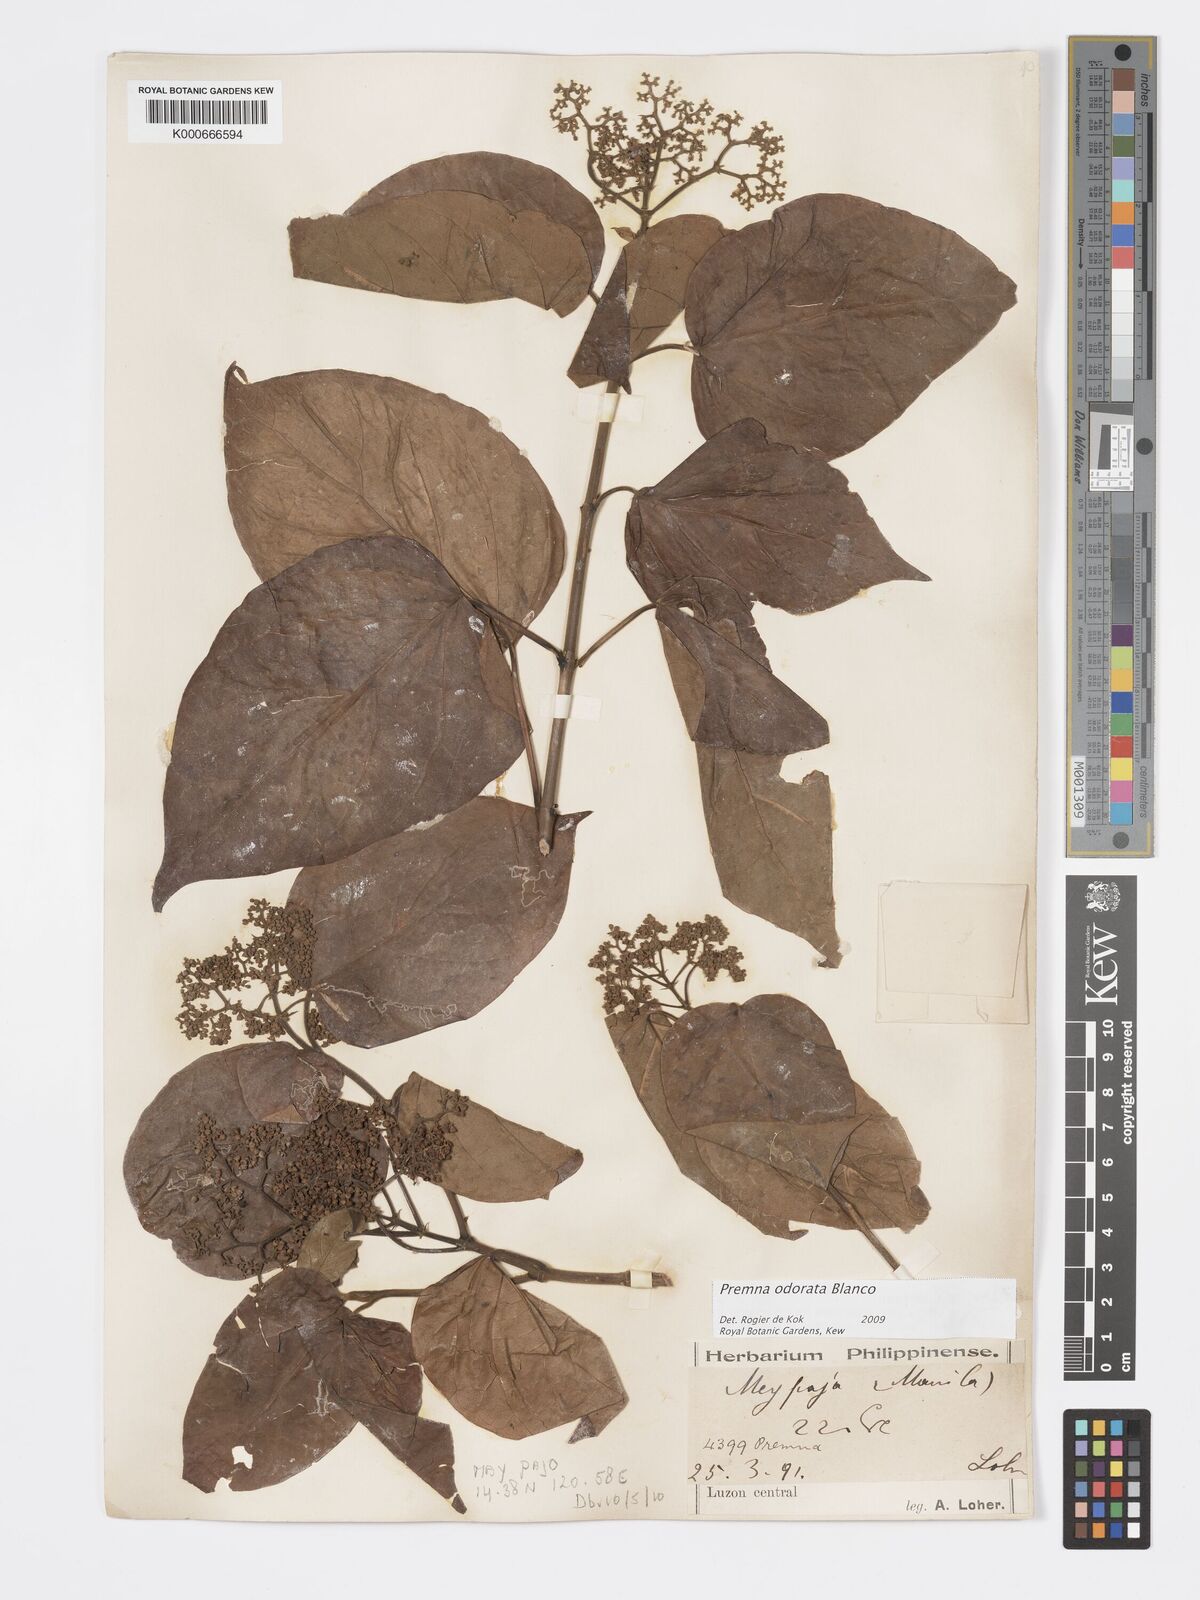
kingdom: Plantae
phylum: Tracheophyta
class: Magnoliopsida
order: Lamiales
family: Lamiaceae
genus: Premna
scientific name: Premna odorata
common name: Fragrant premna
